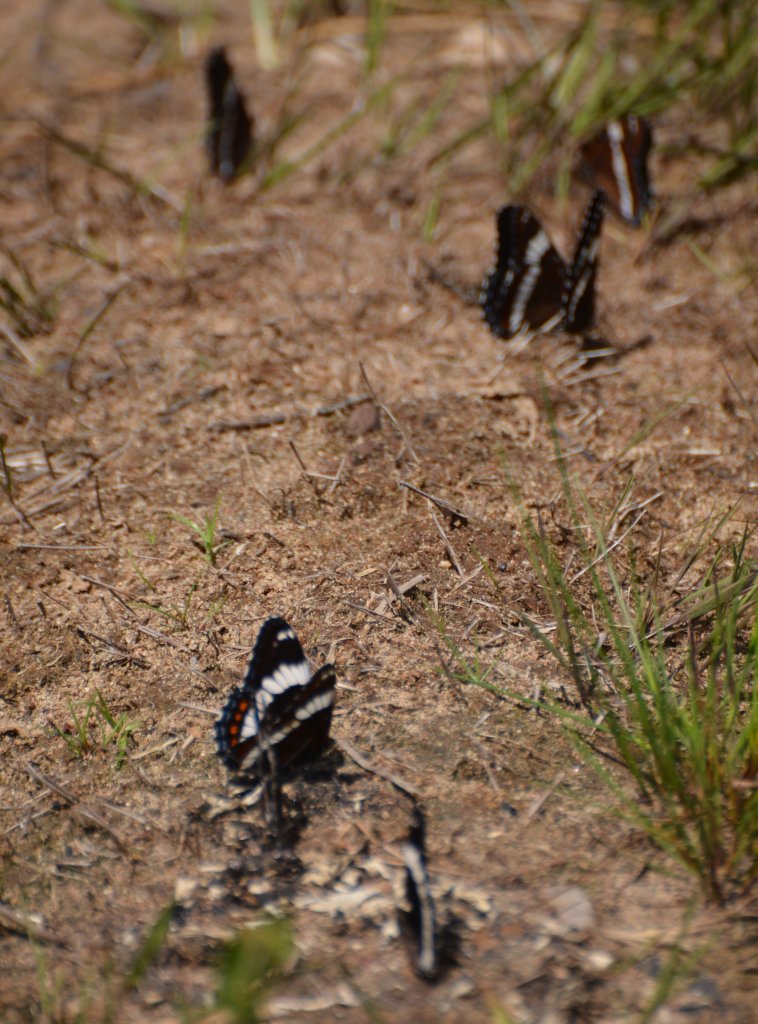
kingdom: Animalia
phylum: Arthropoda
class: Insecta
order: Lepidoptera
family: Nymphalidae
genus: Limenitis
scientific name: Limenitis arthemis
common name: Red-spotted Admiral
